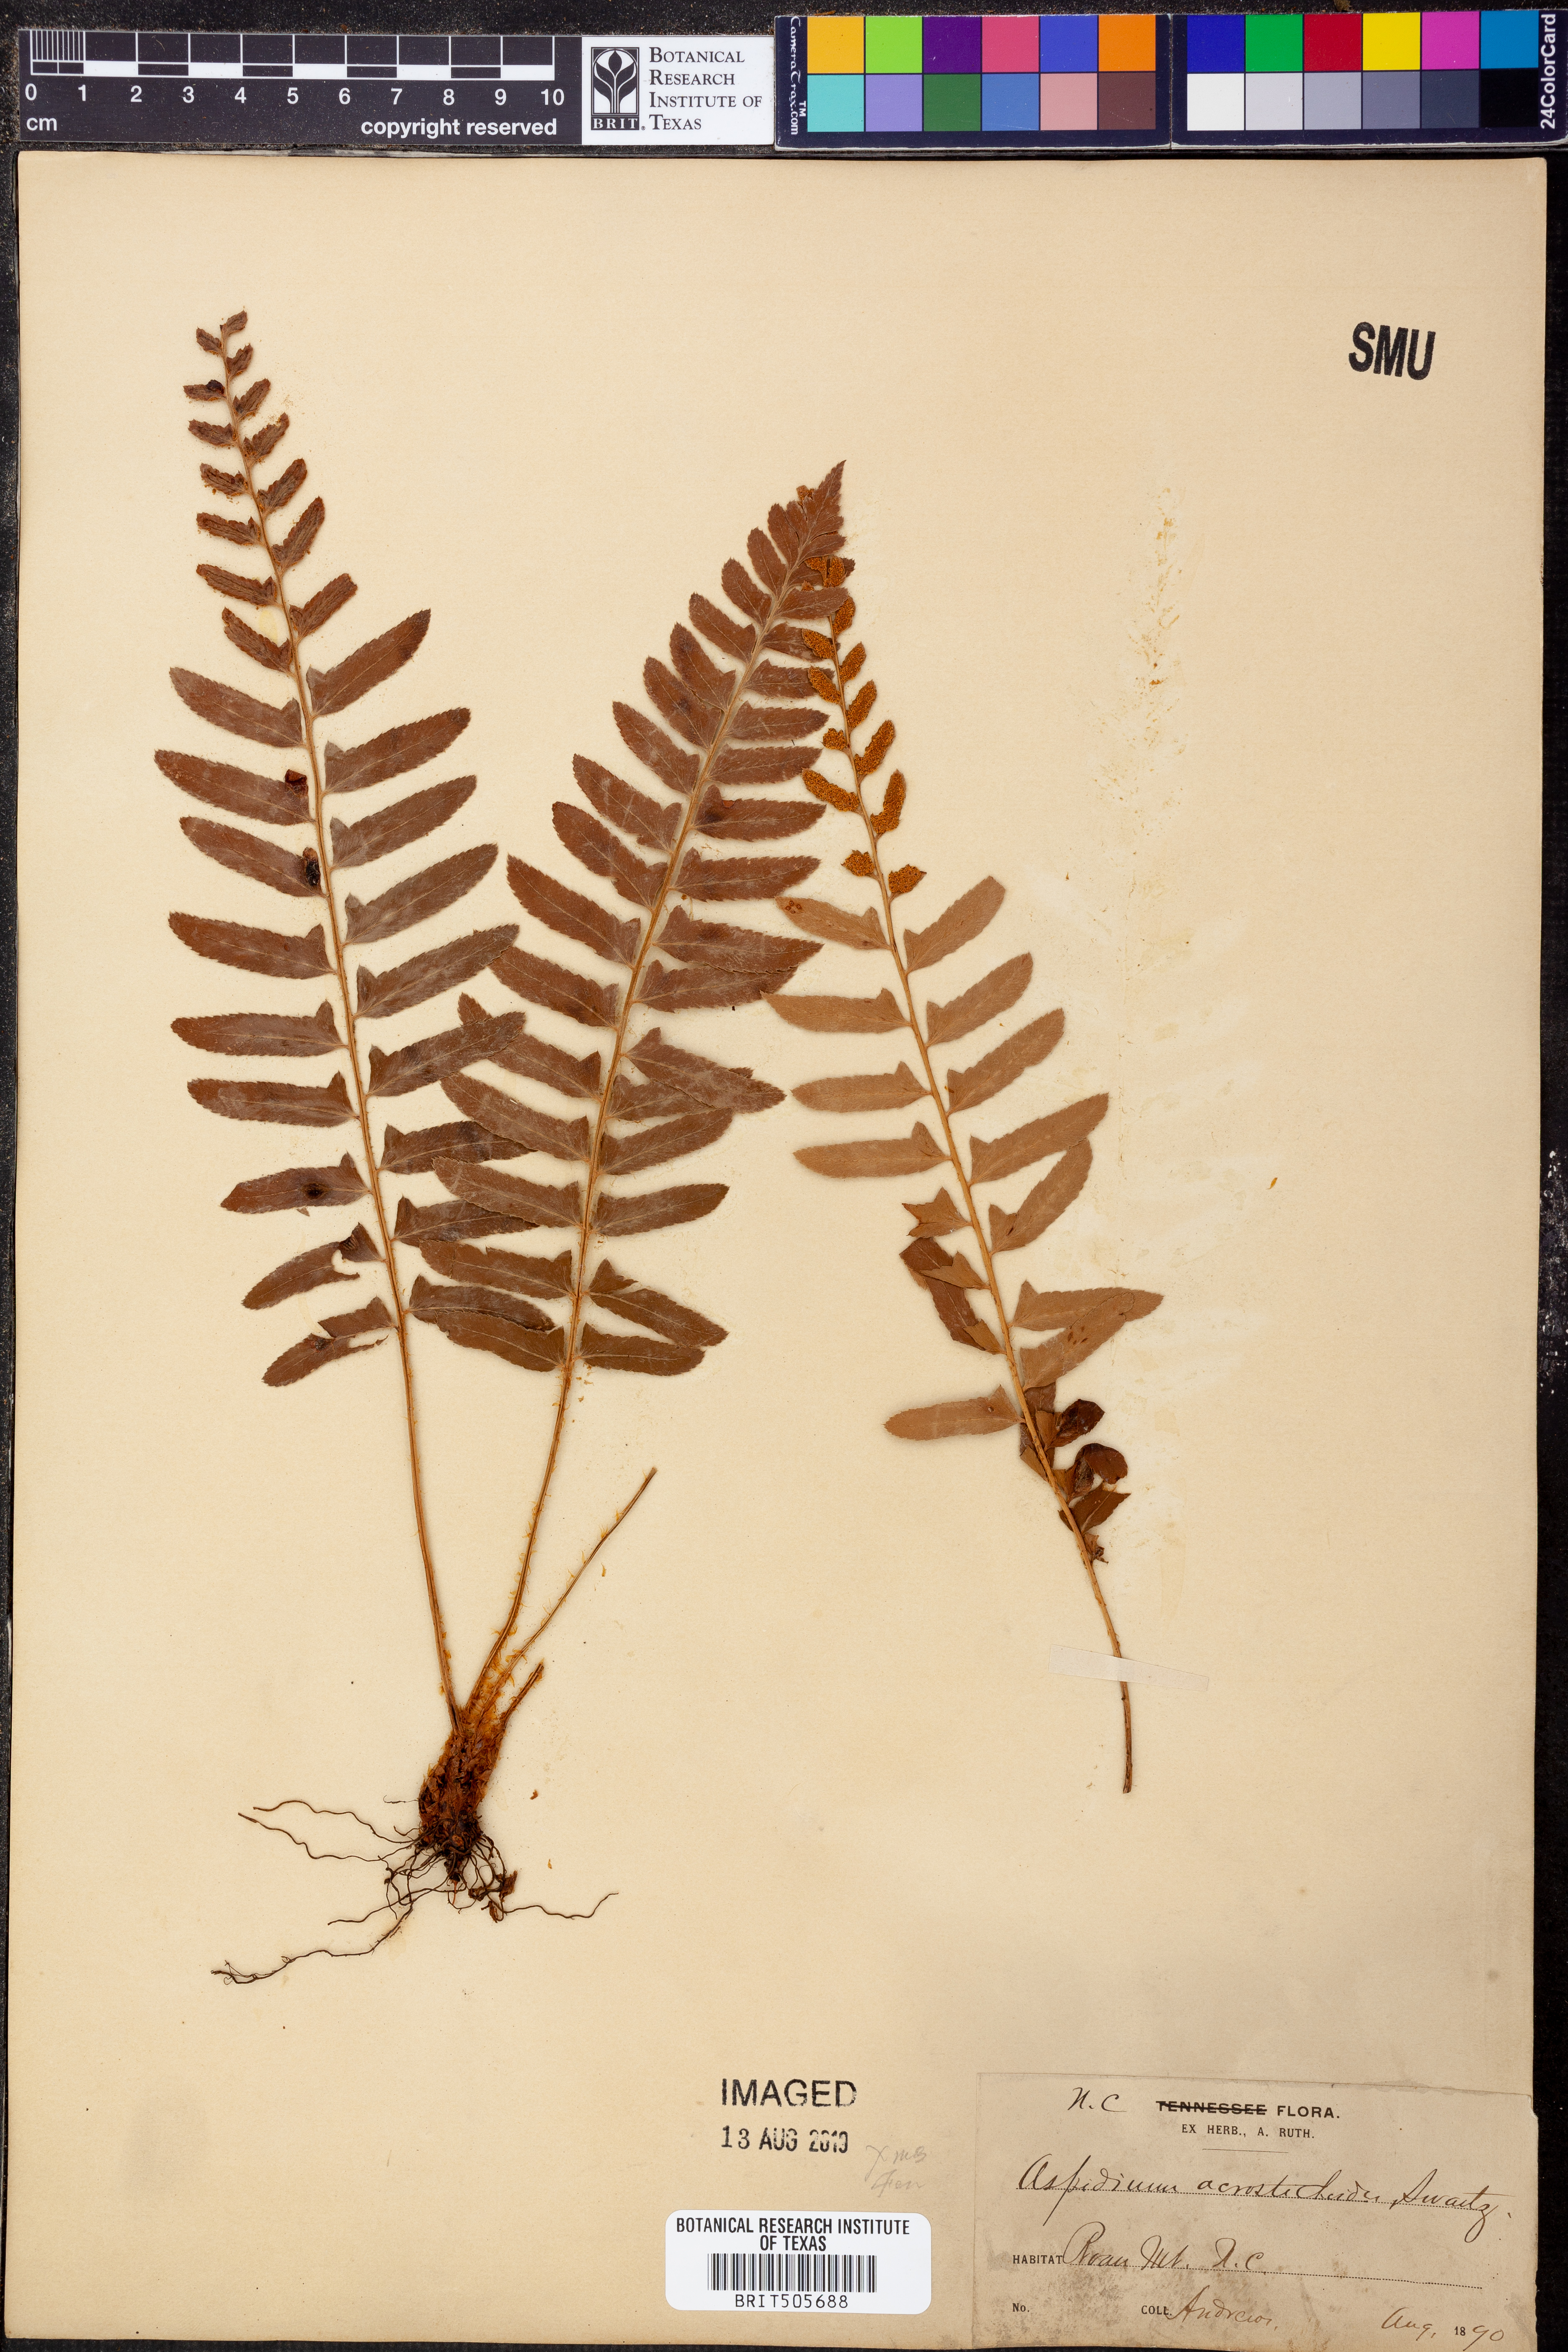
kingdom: Plantae
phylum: Tracheophyta
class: Polypodiopsida
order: Polypodiales
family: Dryopteridaceae
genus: Polystichum
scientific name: Polystichum acrostichoides
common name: Christmas fern
